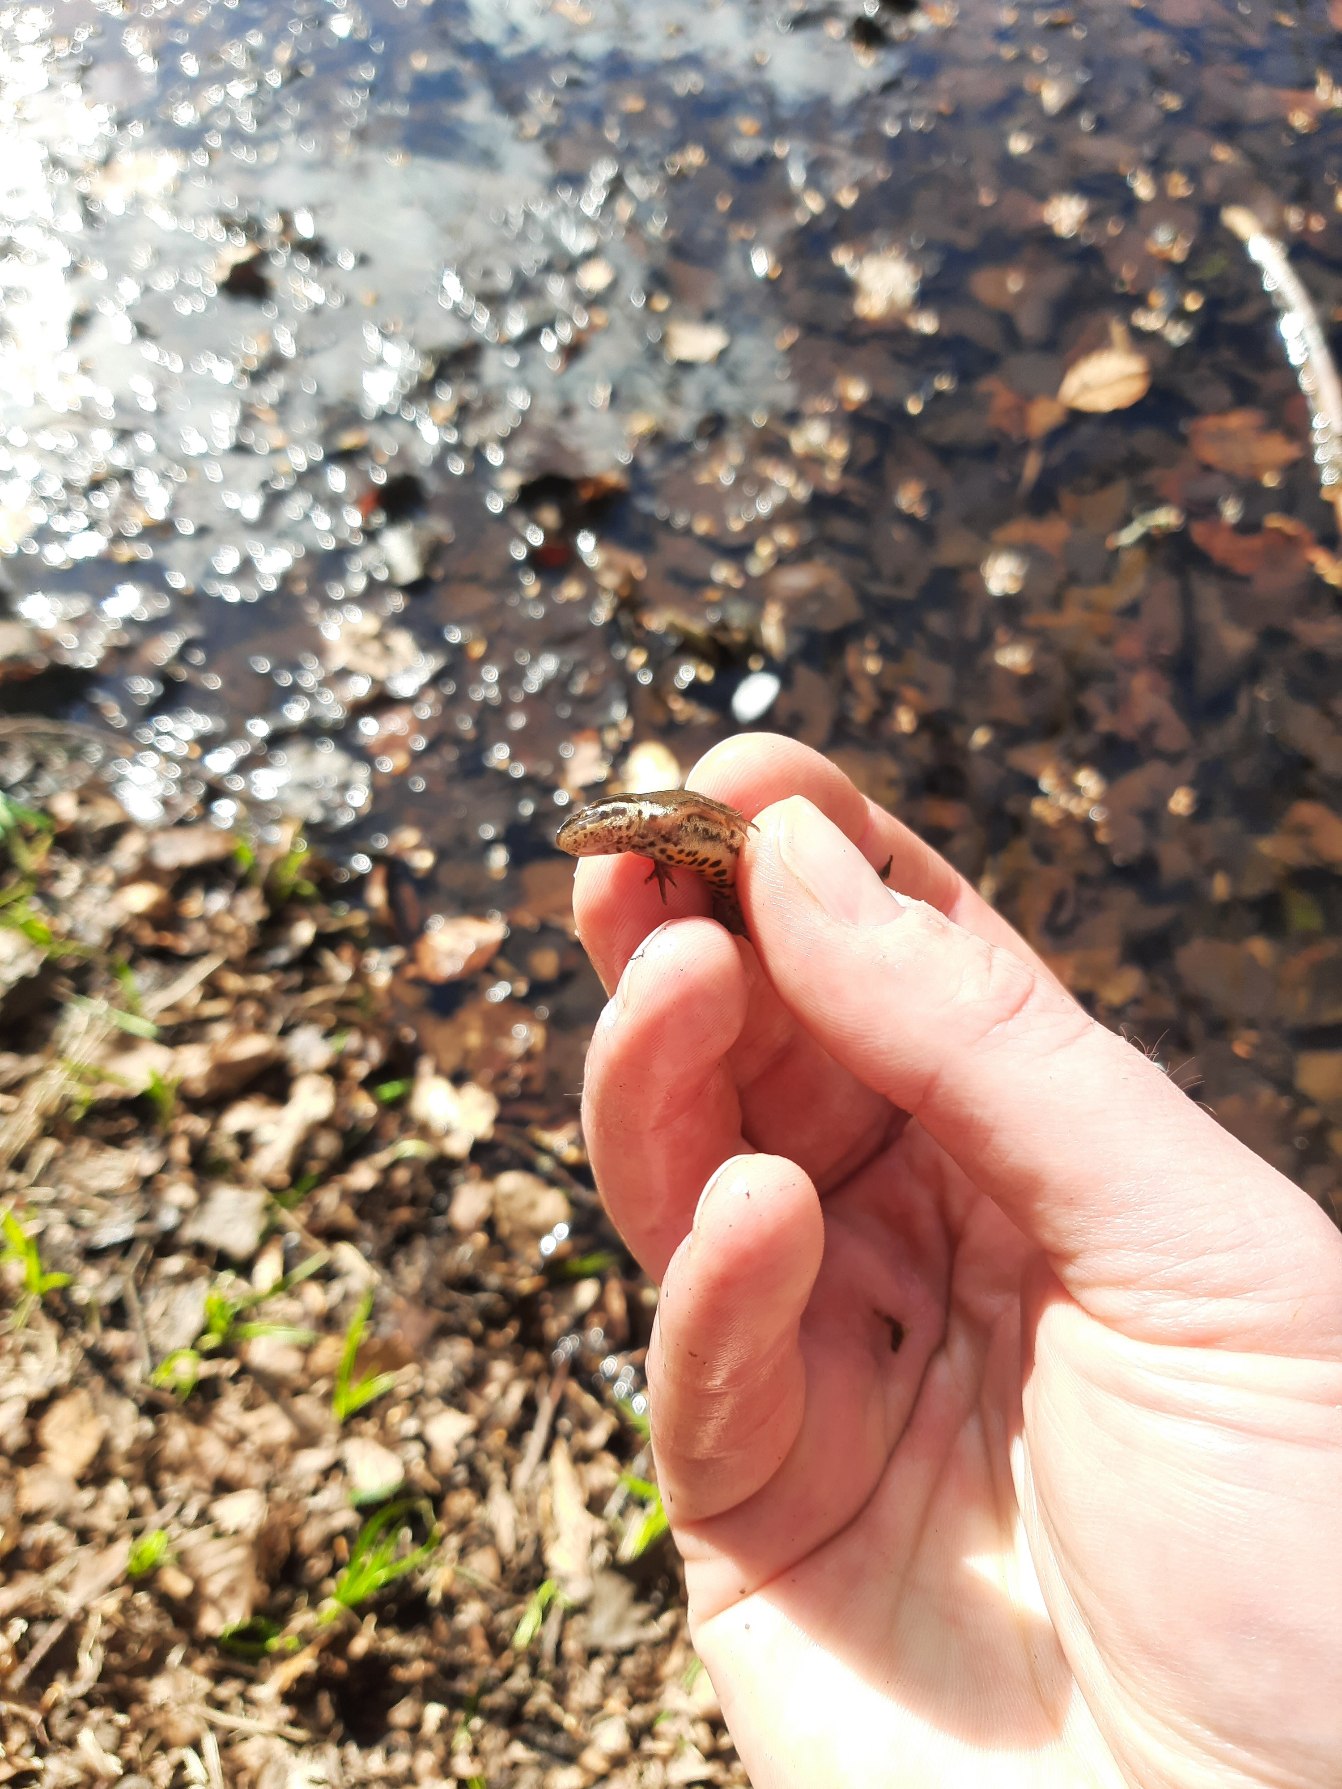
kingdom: Animalia
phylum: Chordata
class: Amphibia
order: Caudata
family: Salamandridae
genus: Lissotriton
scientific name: Lissotriton vulgaris
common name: Lille vandsalamander
